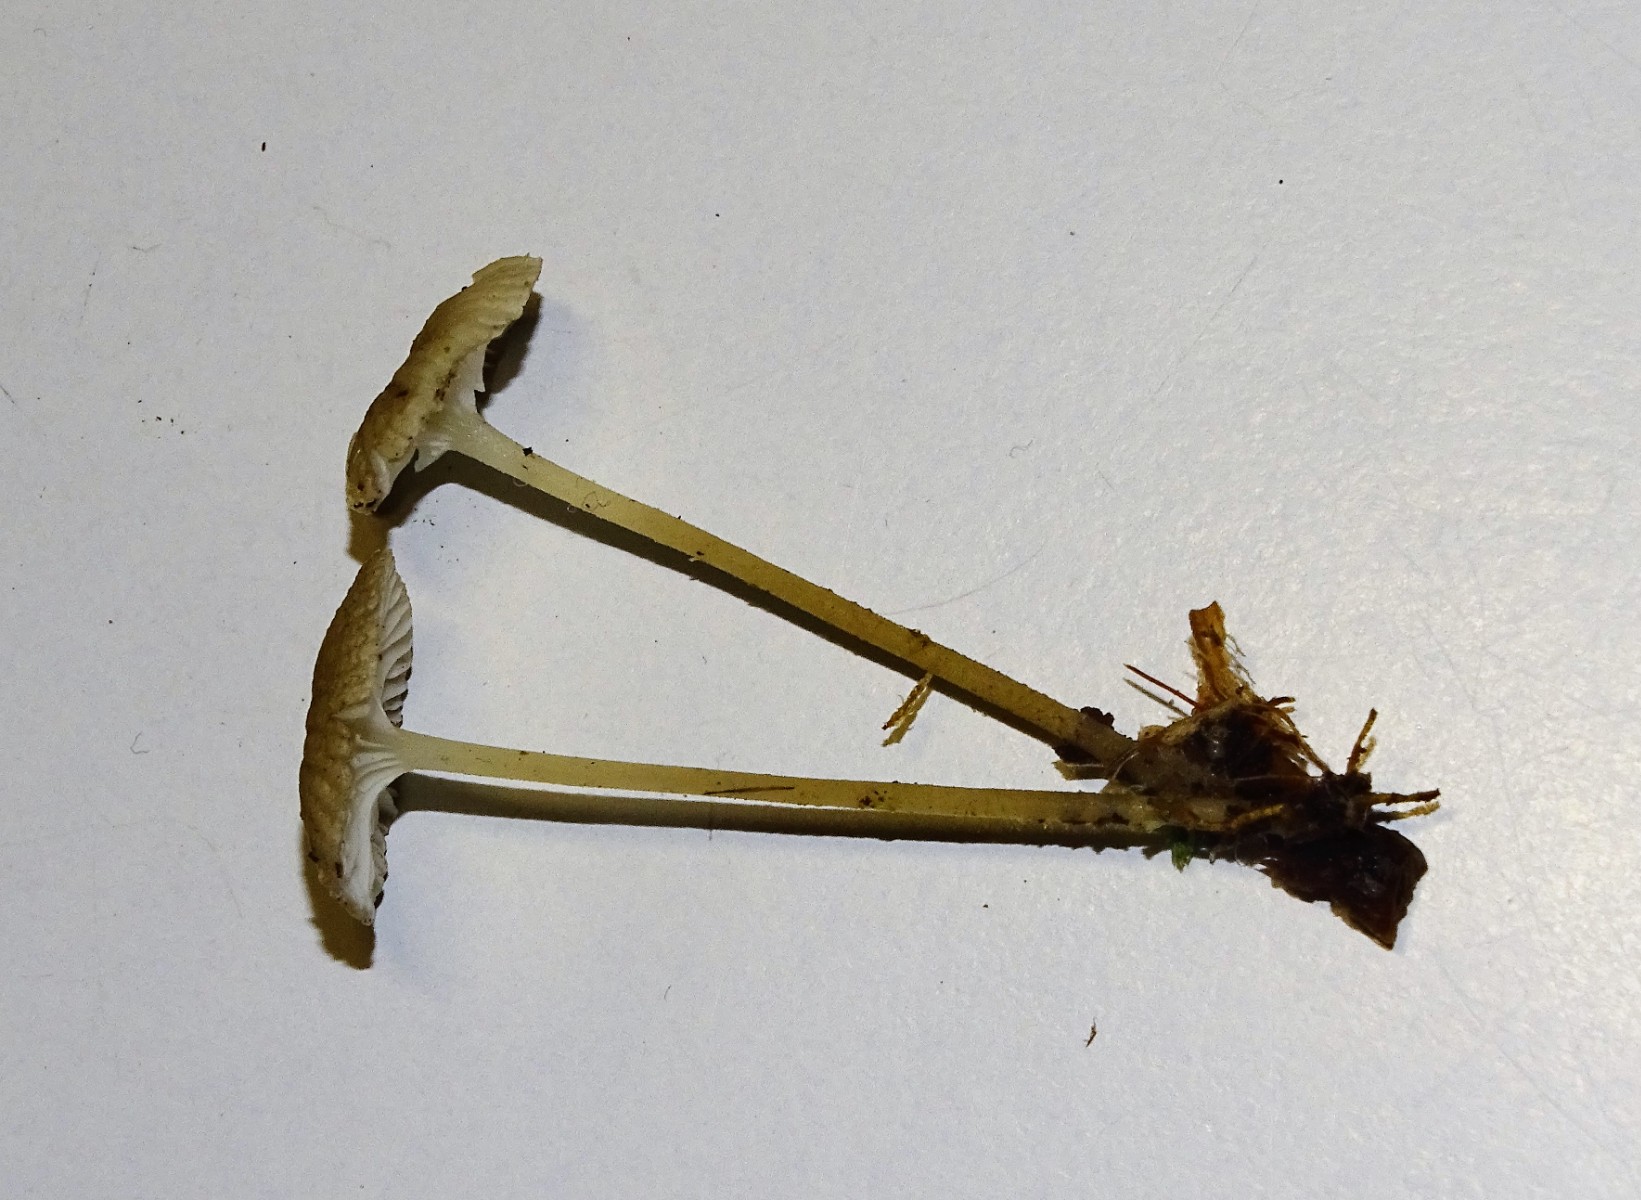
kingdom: Fungi
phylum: Basidiomycota
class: Agaricomycetes
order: Agaricales
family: Porotheleaceae
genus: Phloeomana
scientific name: Phloeomana speirea
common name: kvist-huesvamp
